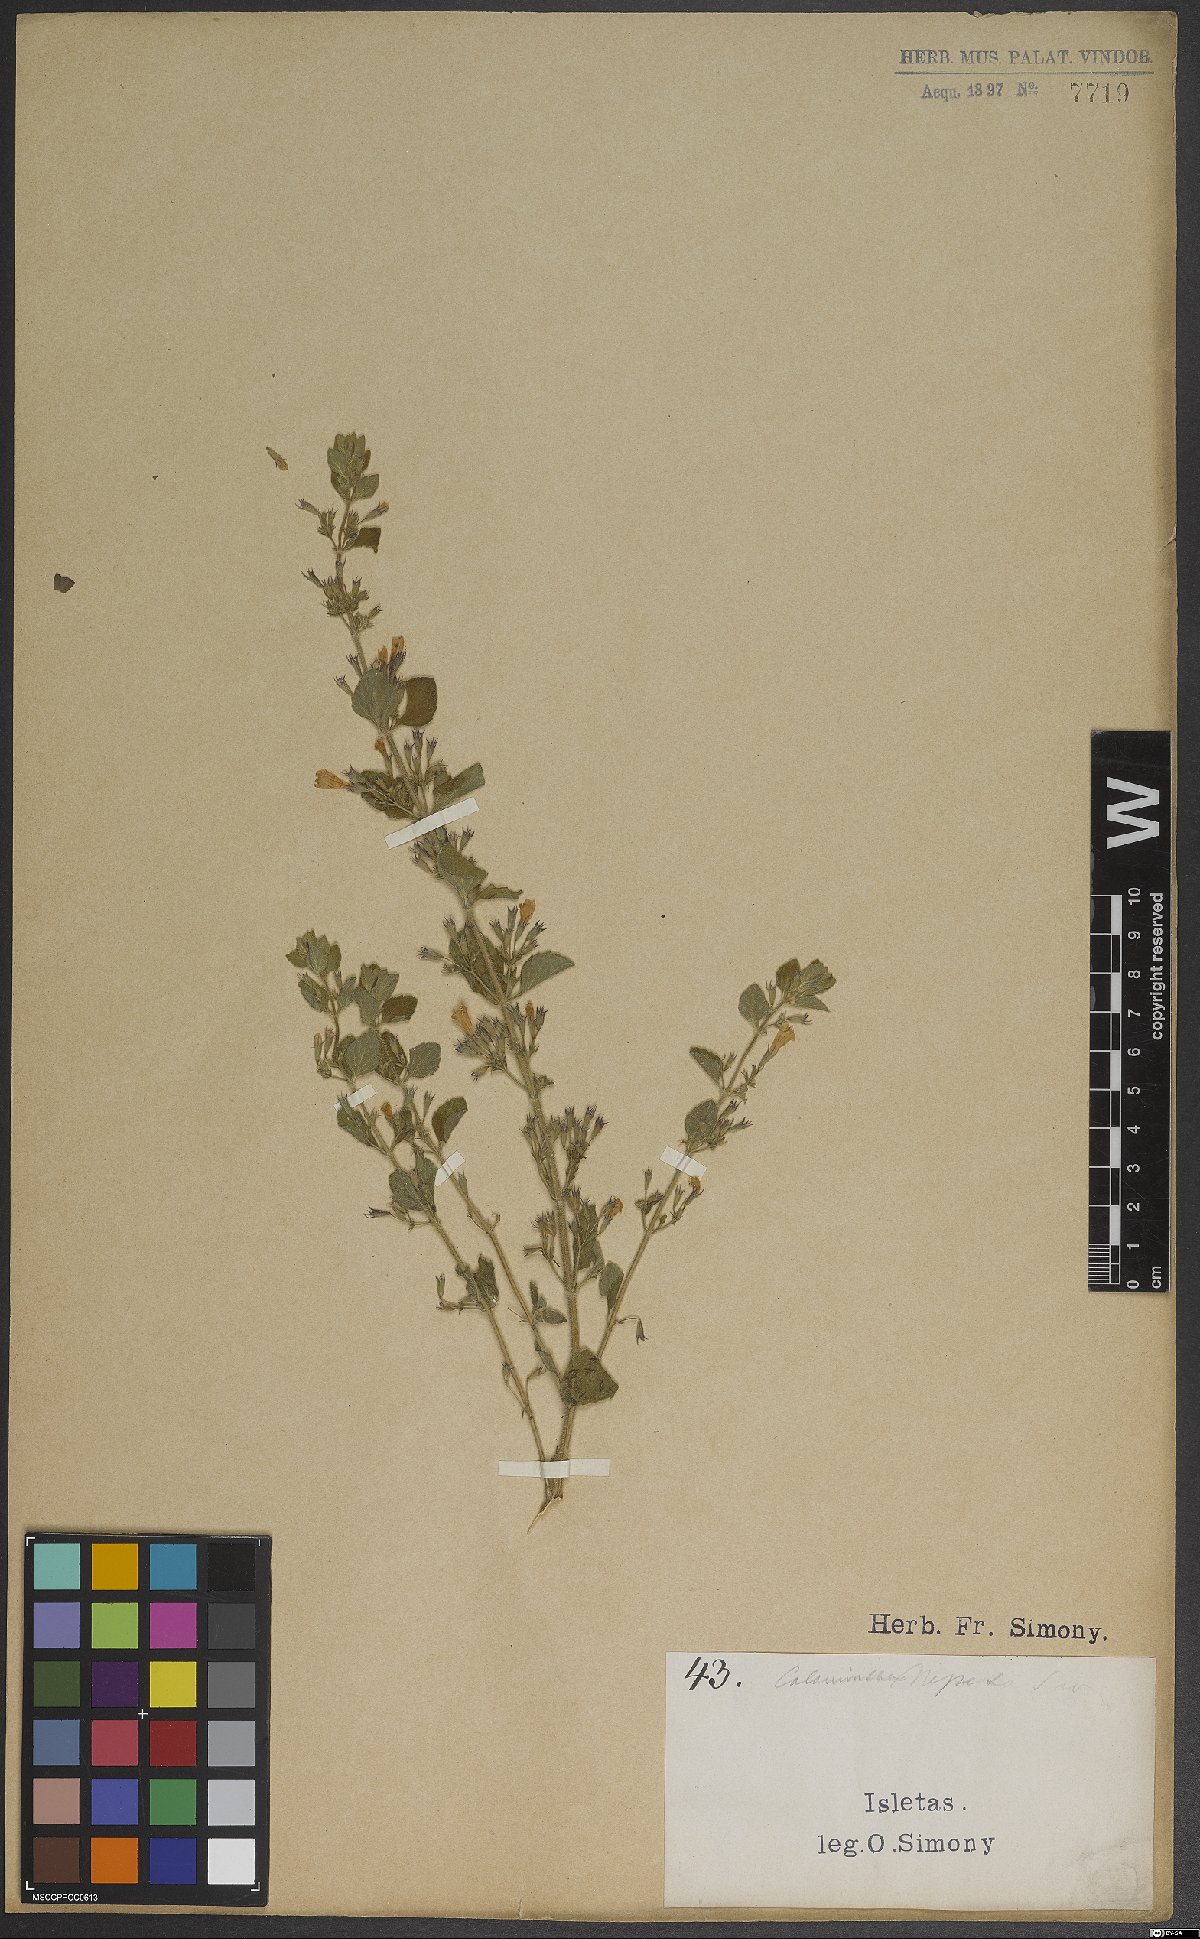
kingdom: Plantae
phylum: Tracheophyta
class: Magnoliopsida
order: Lamiales
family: Lamiaceae
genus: Clinopodium
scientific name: Clinopodium nepeta
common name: Lesser calamint
